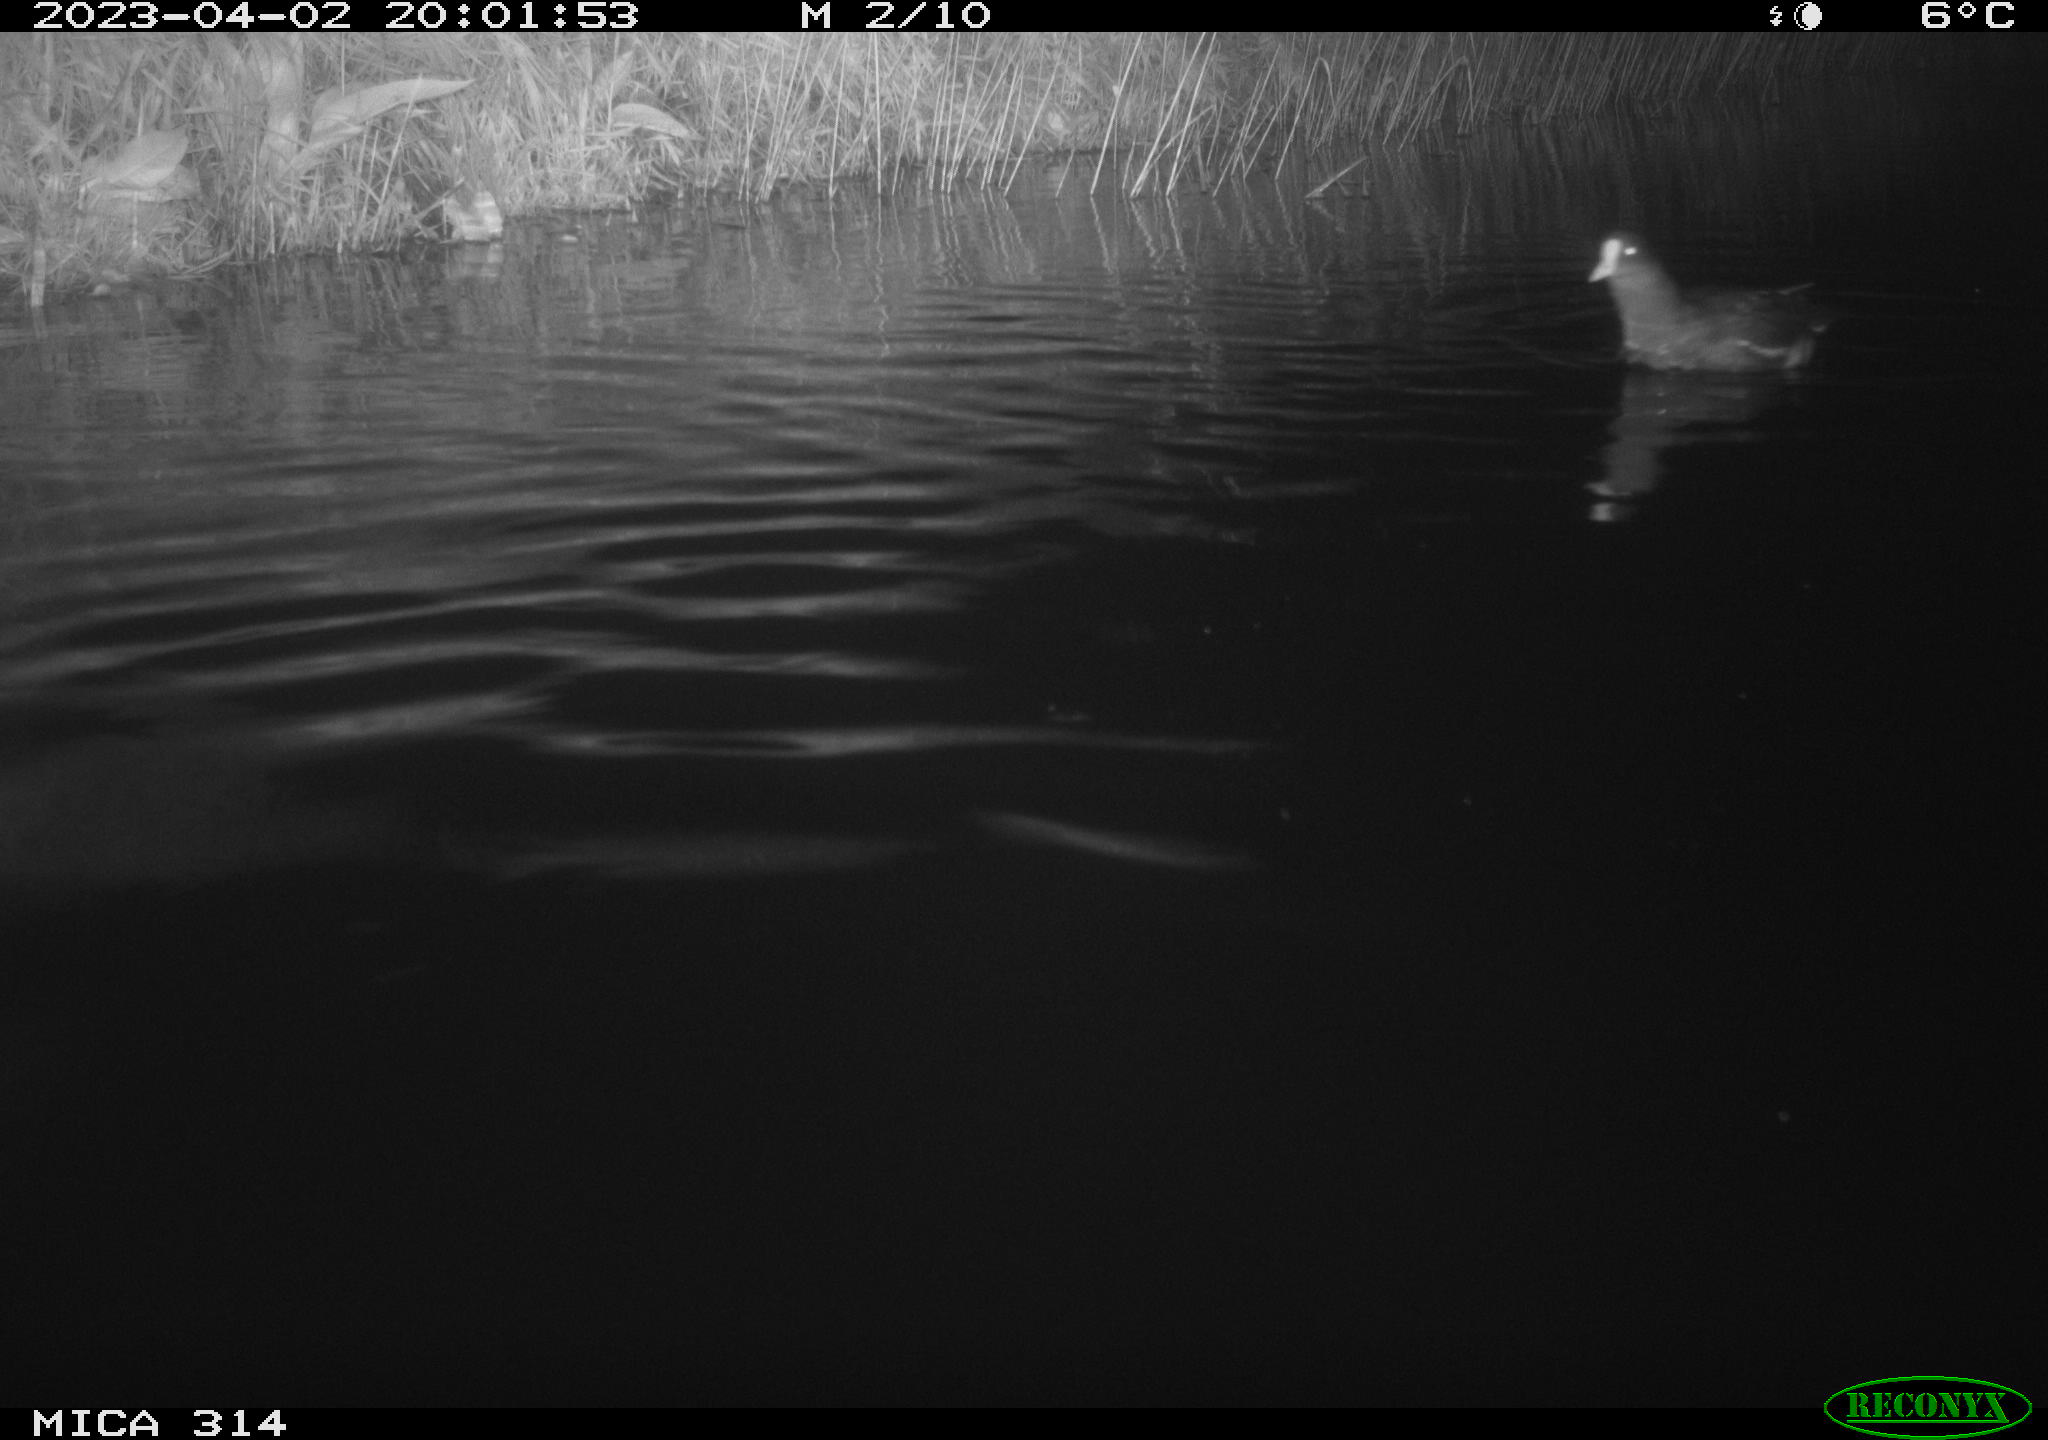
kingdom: Animalia
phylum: Chordata
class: Aves
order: Gruiformes
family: Rallidae
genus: Gallinula
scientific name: Gallinula chloropus
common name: Common moorhen
